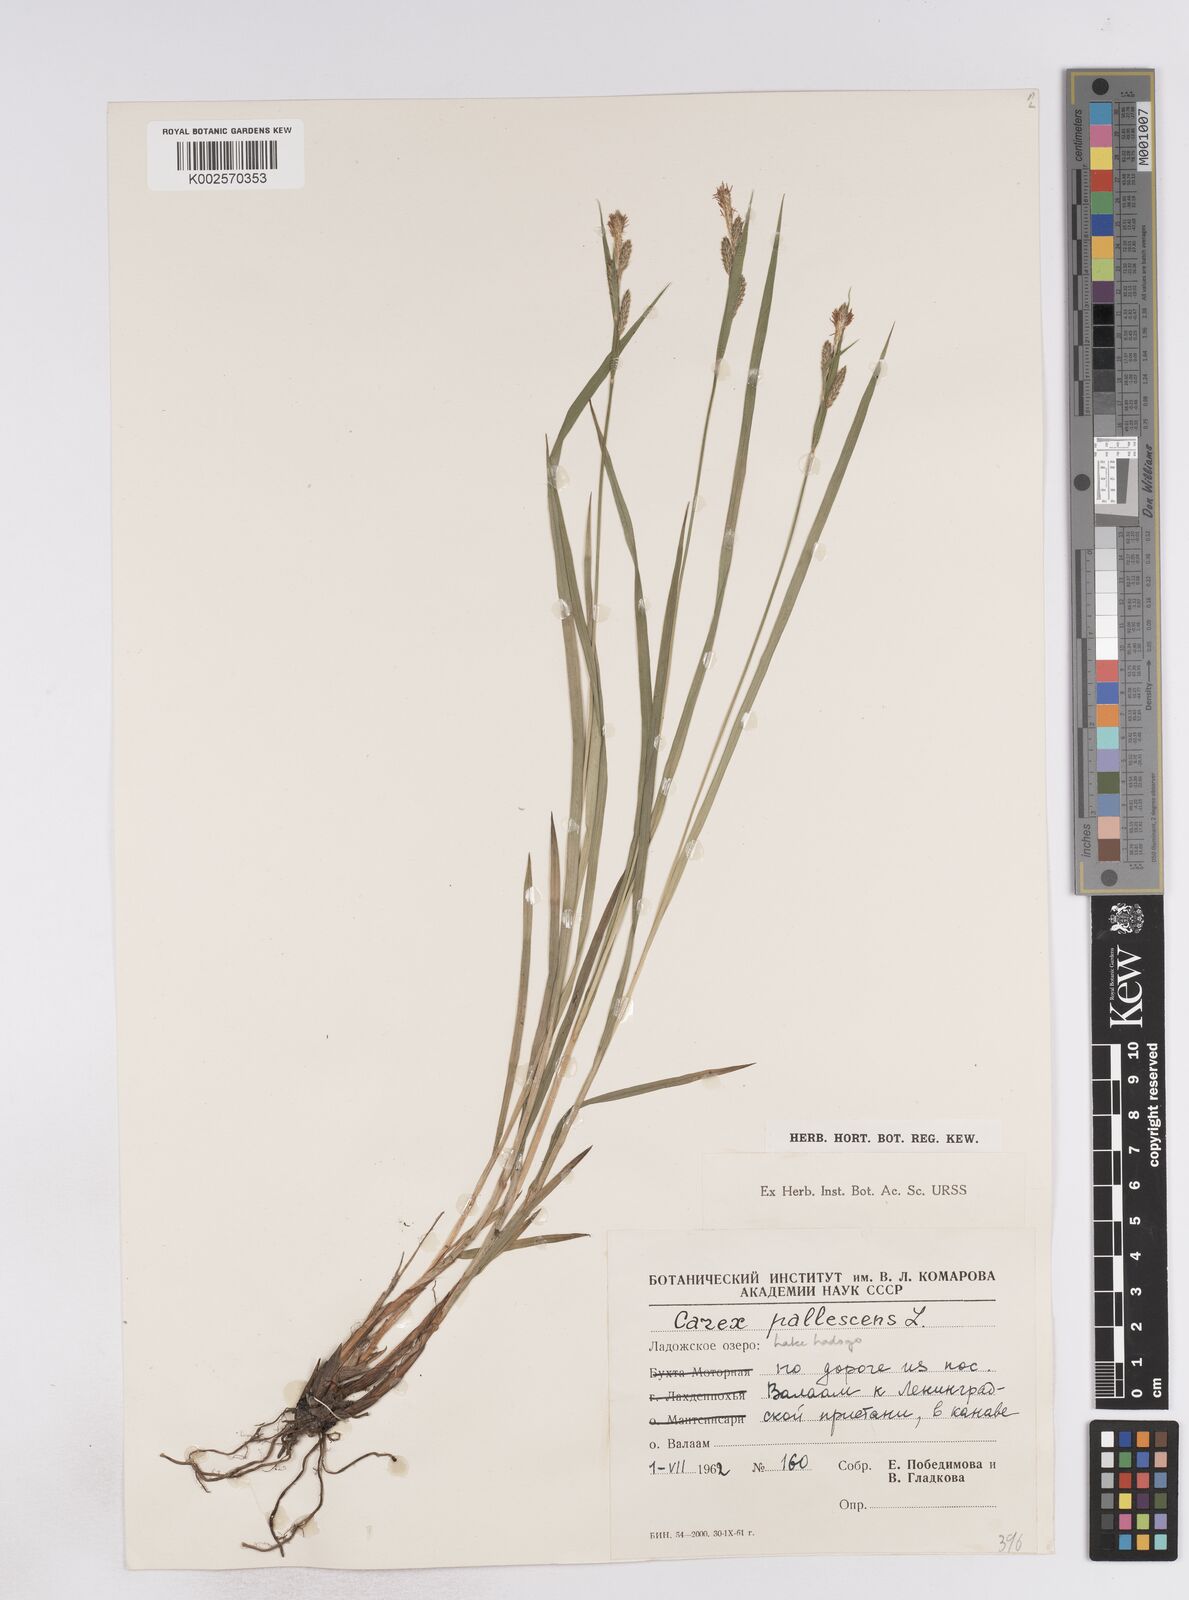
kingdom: Plantae
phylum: Tracheophyta
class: Liliopsida
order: Poales
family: Cyperaceae
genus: Carex
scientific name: Carex pallescens
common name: Pale sedge
